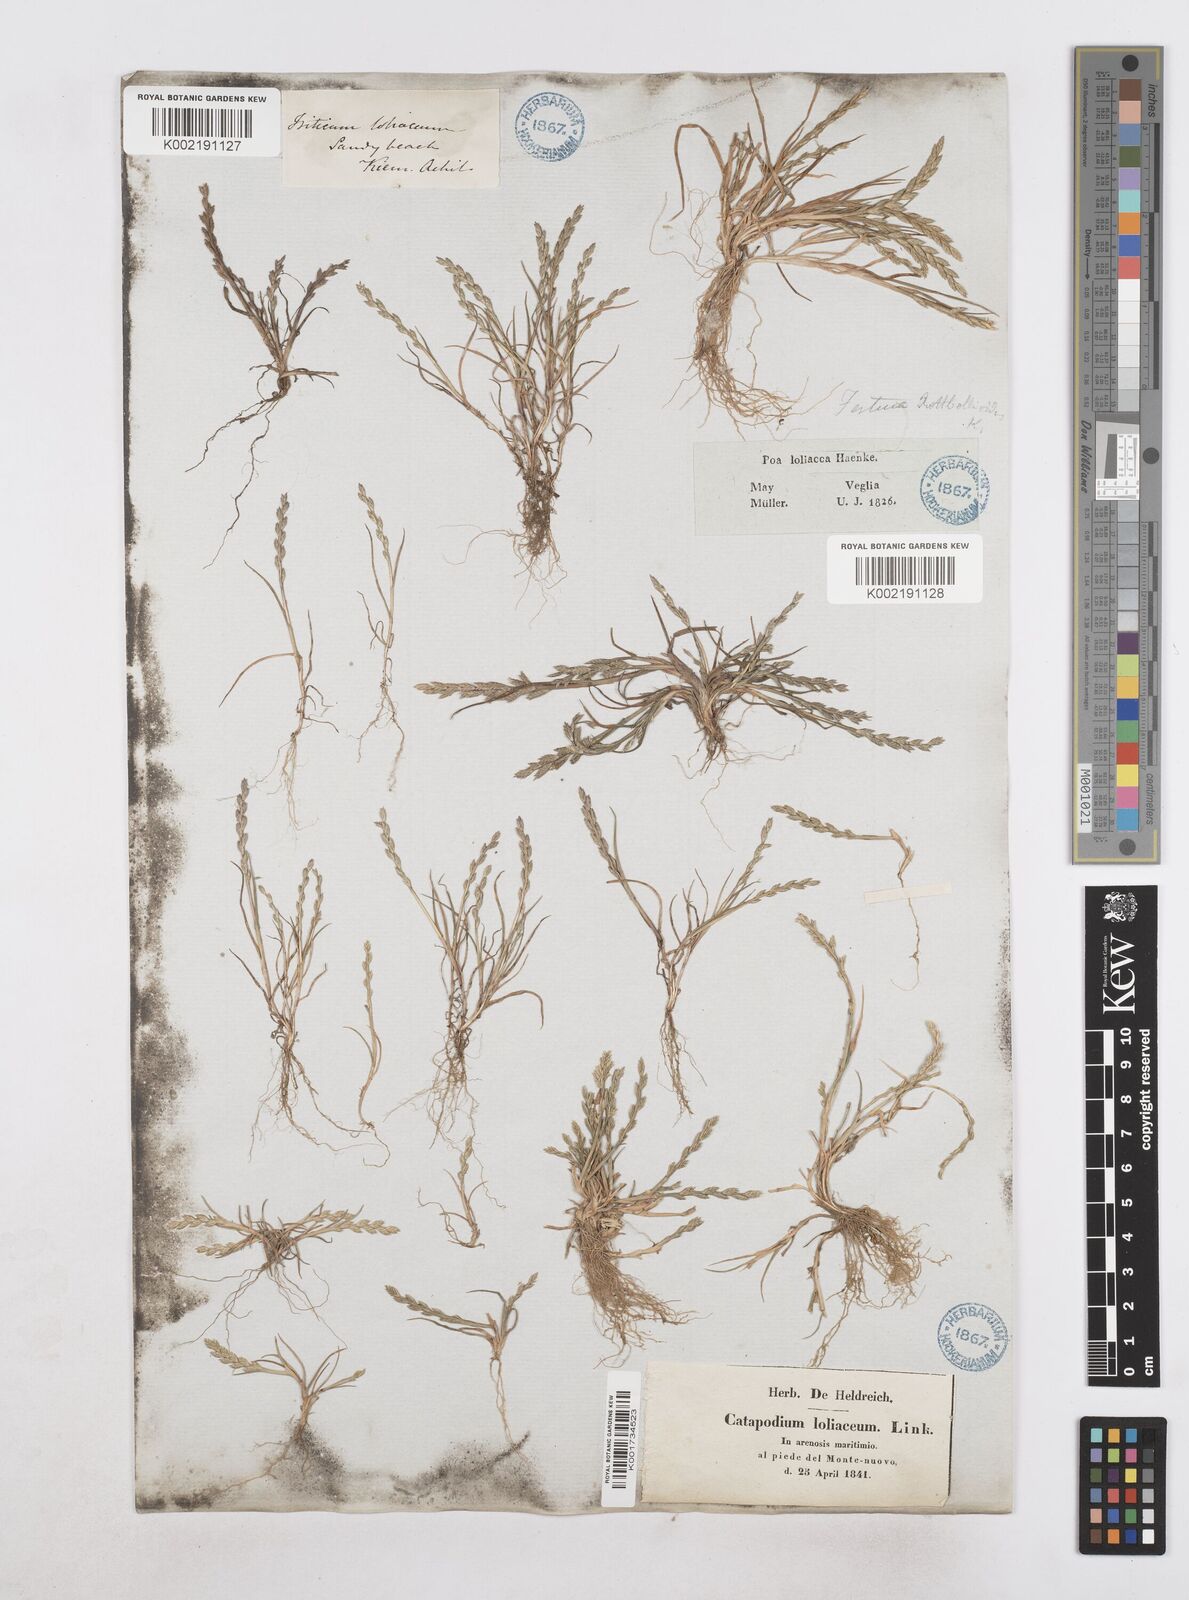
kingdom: Plantae
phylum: Tracheophyta
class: Liliopsida
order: Poales
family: Poaceae
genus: Catapodium
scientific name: Catapodium marinum
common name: Sea fern-grass
